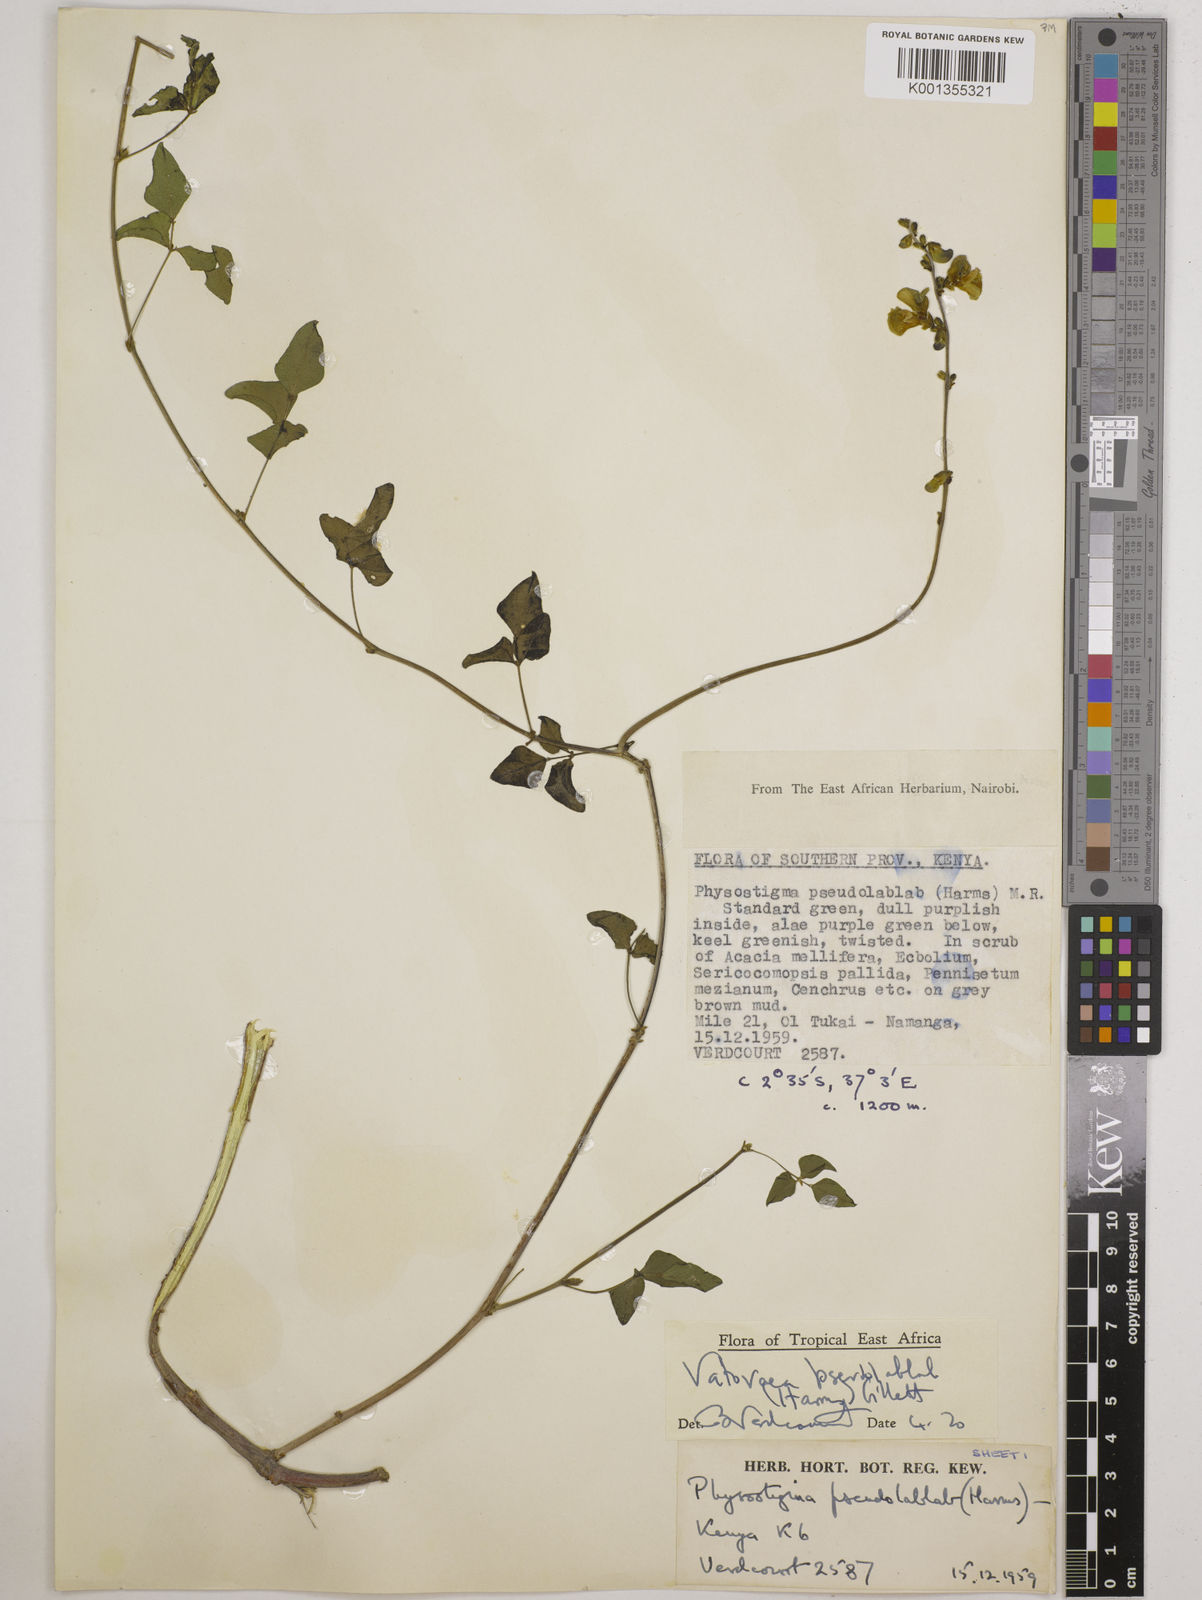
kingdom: Plantae
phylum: Tracheophyta
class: Magnoliopsida
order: Fabales
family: Fabaceae
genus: Vatovaea
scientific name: Vatovaea pseudolablab
